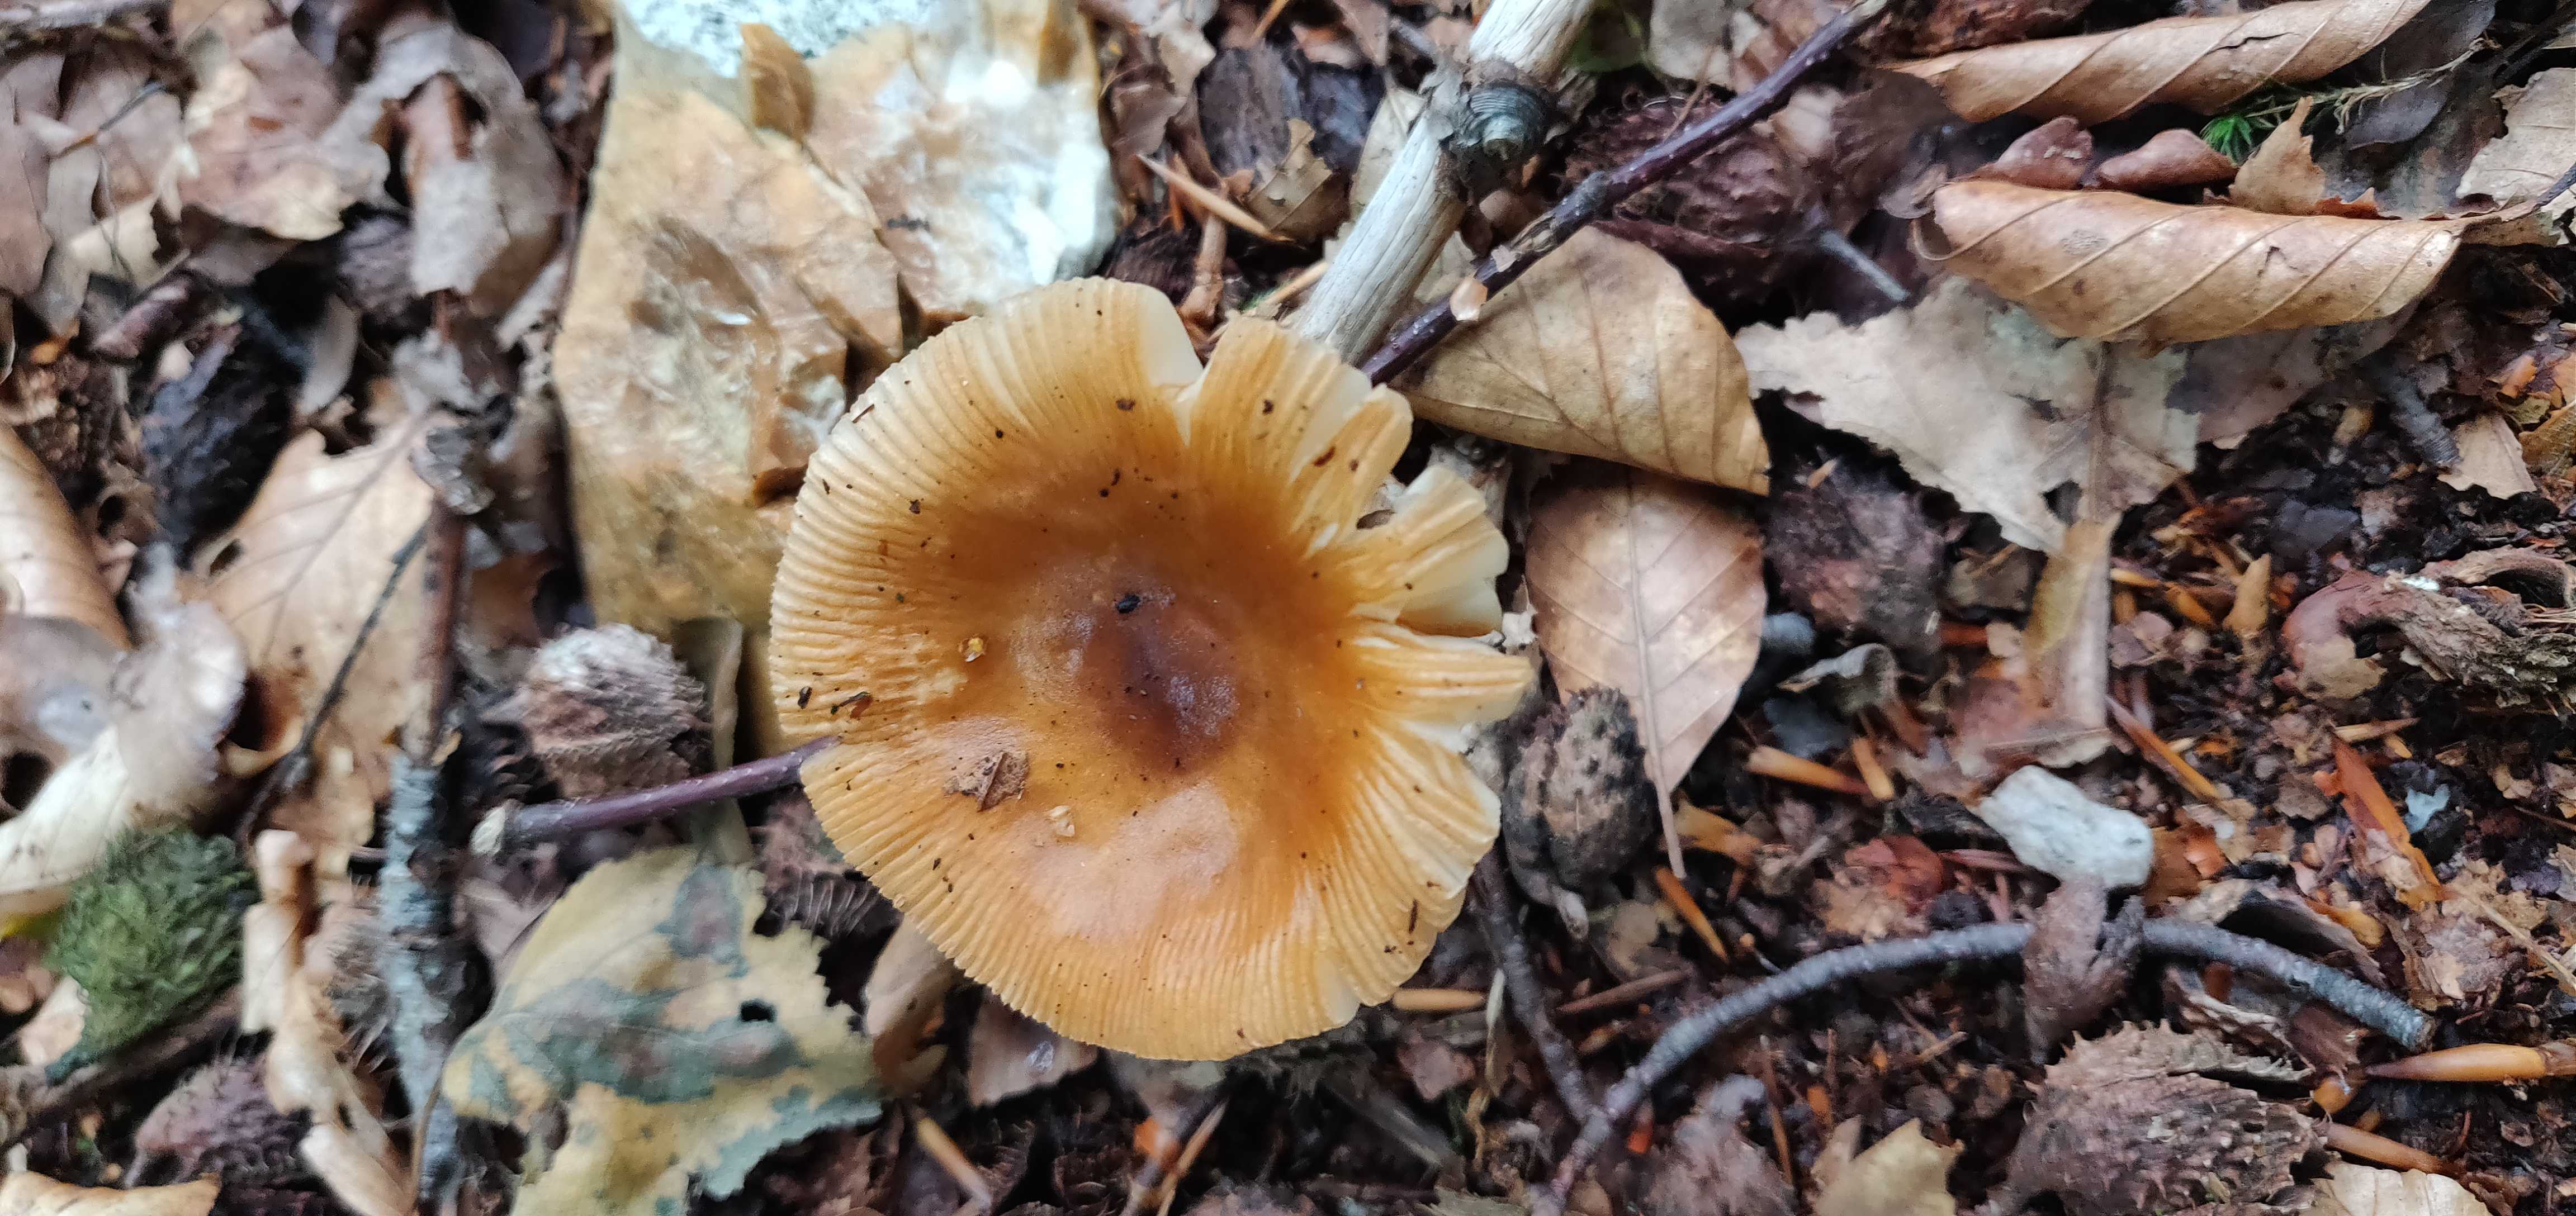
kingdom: Fungi
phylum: Basidiomycota
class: Agaricomycetes
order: Agaricales
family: Amanitaceae
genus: Amanita
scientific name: Amanita
